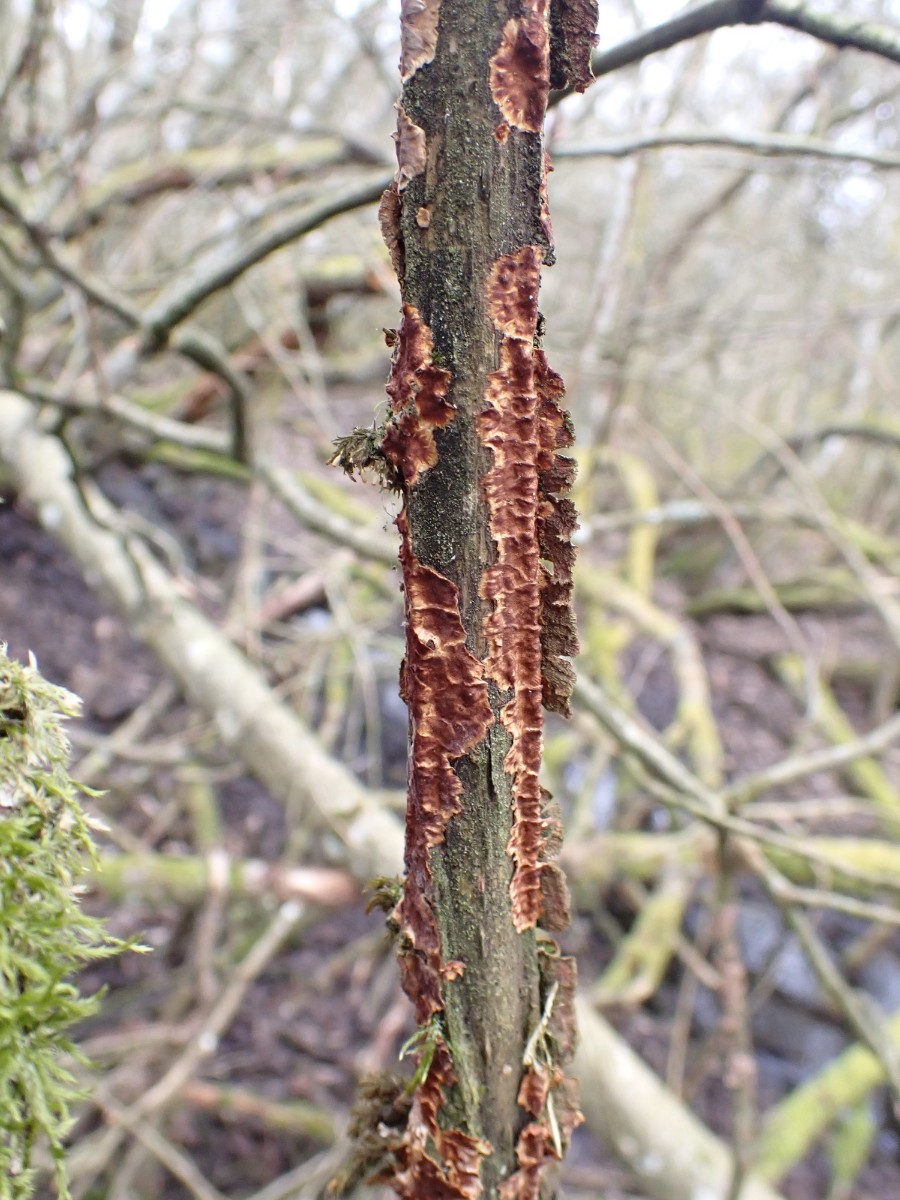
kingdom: Fungi
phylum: Basidiomycota
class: Agaricomycetes
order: Hymenochaetales
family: Hymenochaetaceae
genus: Hydnoporia
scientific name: Hydnoporia tabacina
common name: tobaksbrun ruslædersvamp
